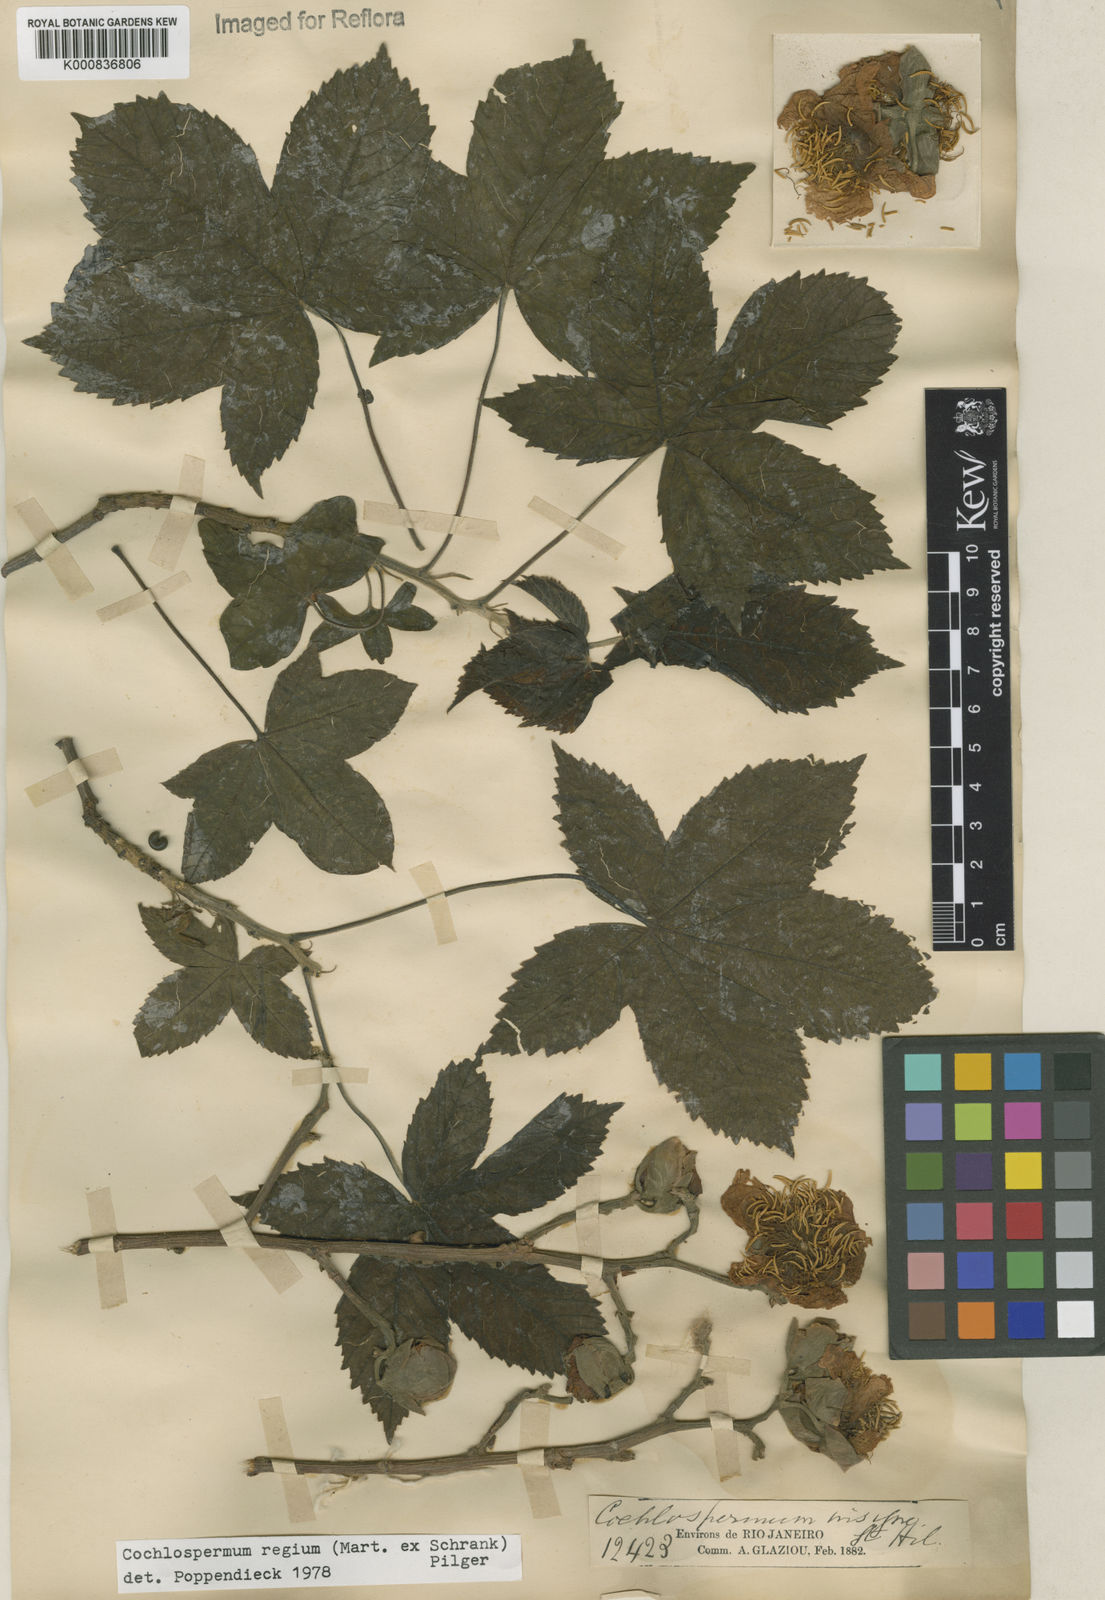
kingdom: Plantae
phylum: Tracheophyta
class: Magnoliopsida
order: Malvales
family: Cochlospermaceae
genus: Cochlospermum
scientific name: Cochlospermum regium
